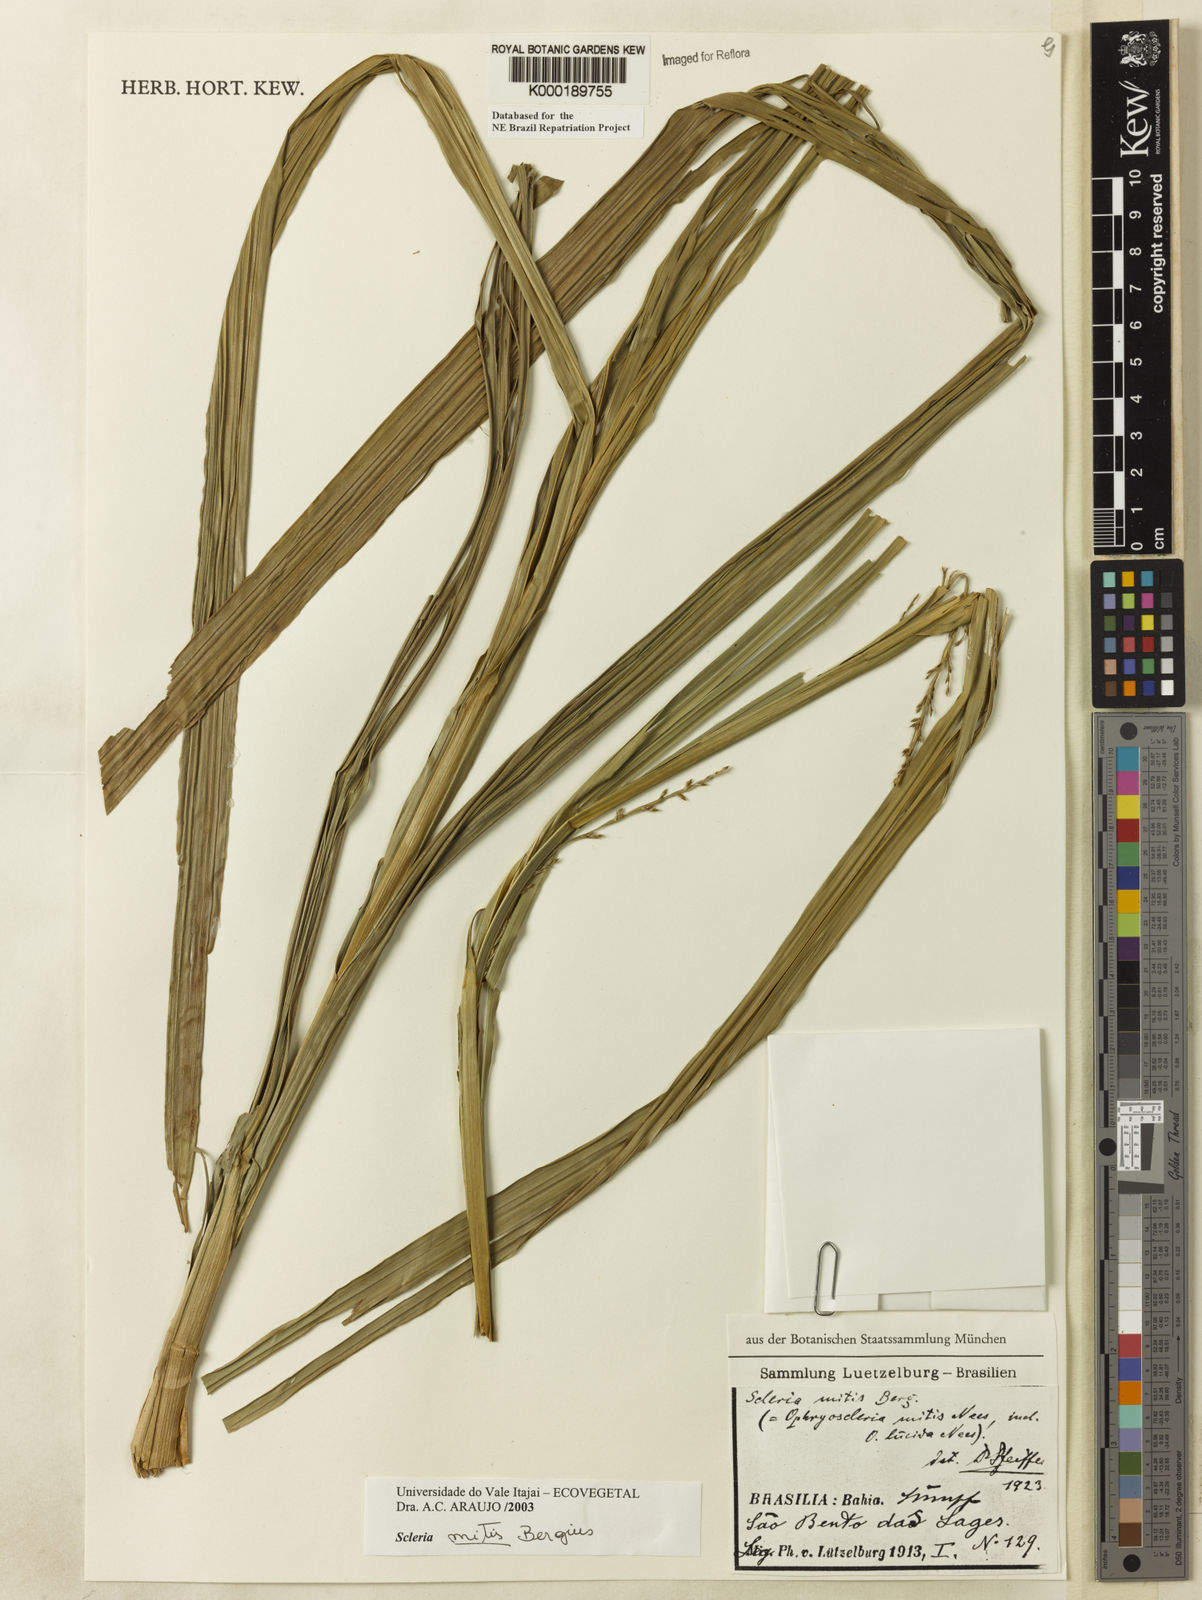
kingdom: Plantae
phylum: Tracheophyta
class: Liliopsida
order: Poales
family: Cyperaceae
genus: Scleria
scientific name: Scleria mitis
